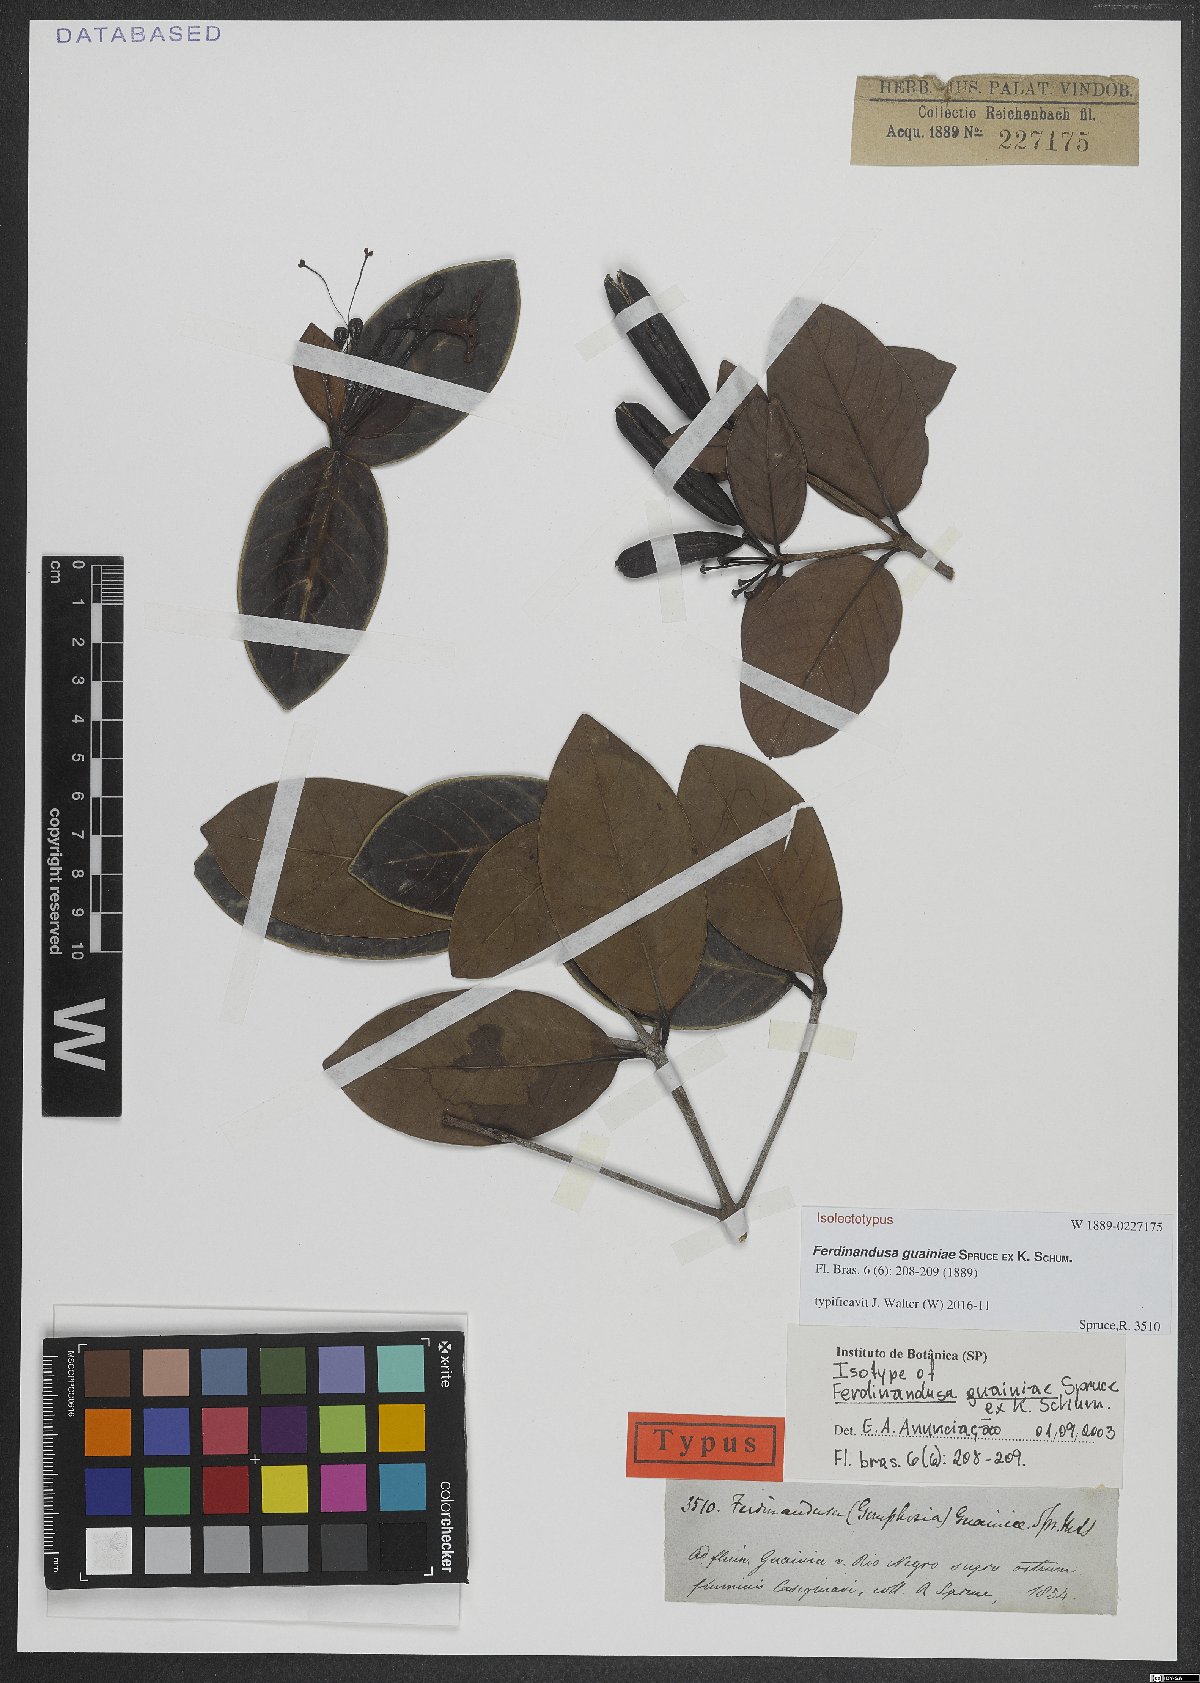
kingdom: Plantae
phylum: Tracheophyta
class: Magnoliopsida
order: Gentianales
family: Rubiaceae
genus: Ferdinandusa
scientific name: Ferdinandusa guainiae
